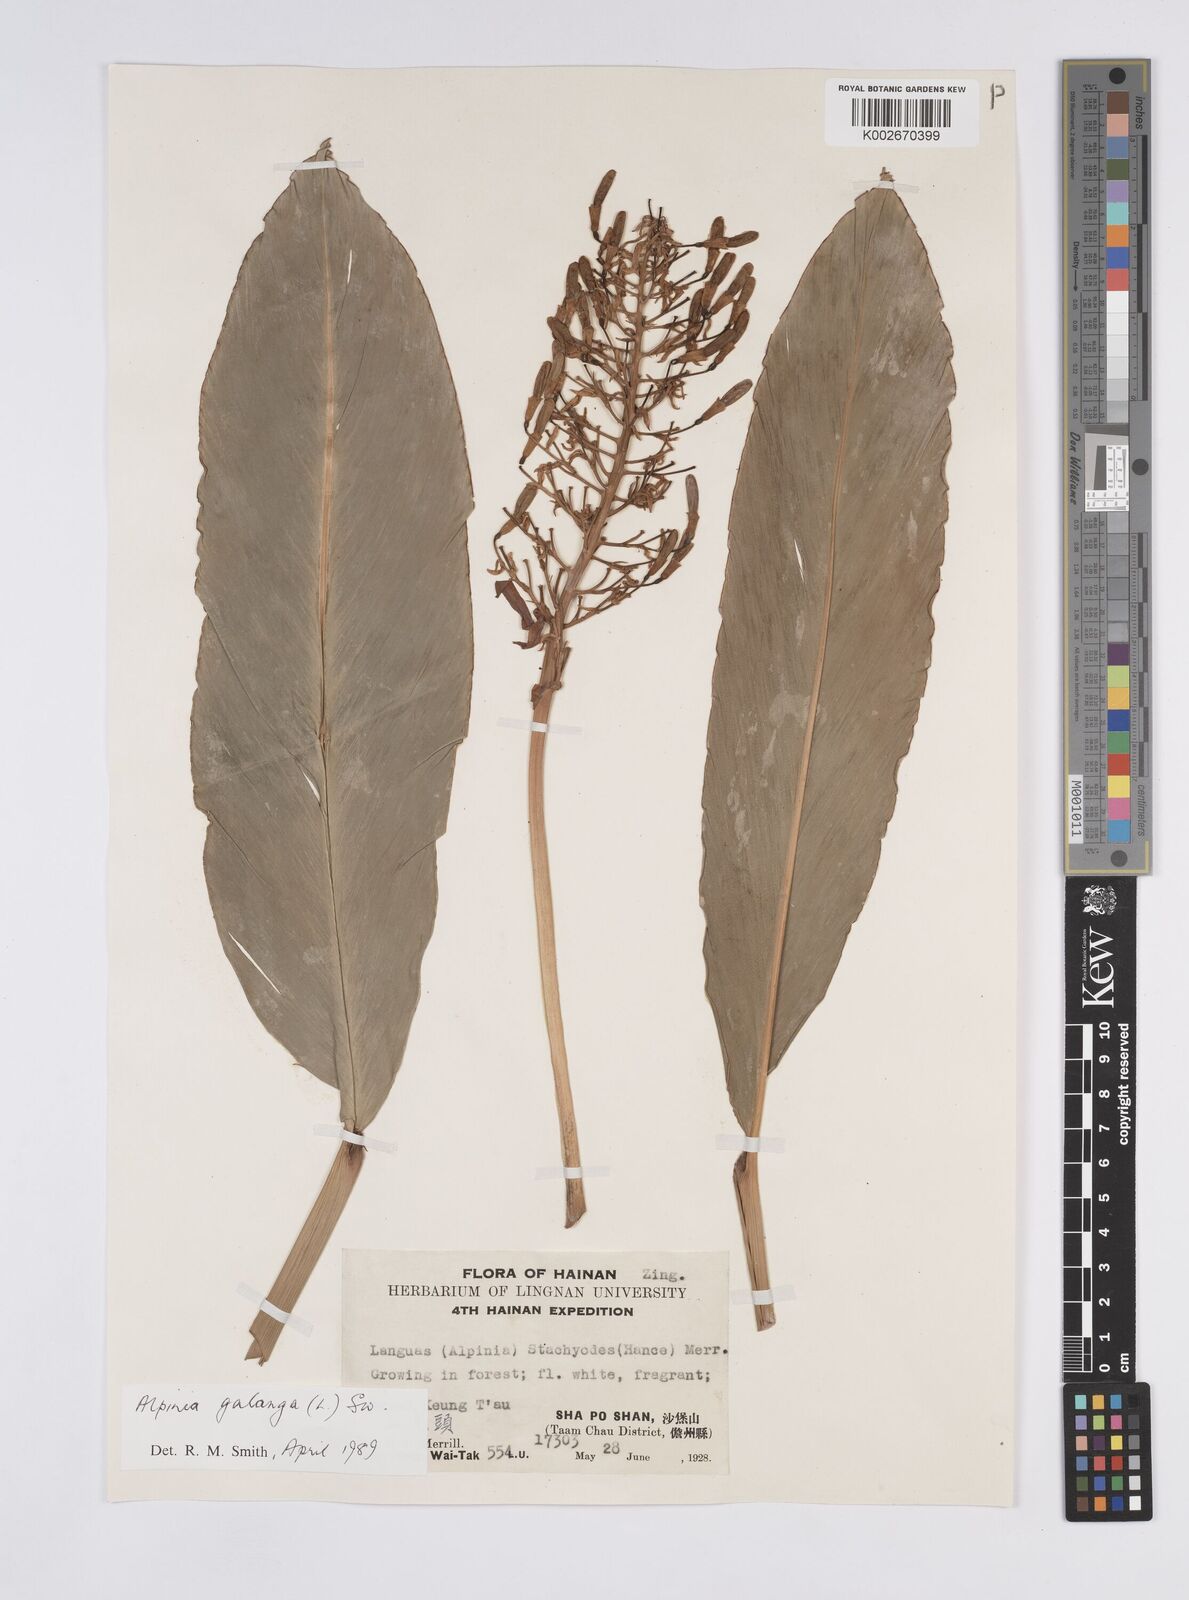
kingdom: Plantae
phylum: Tracheophyta
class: Liliopsida
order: Zingiberales
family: Zingiberaceae
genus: Alpinia
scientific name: Alpinia galanga
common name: Siamese-ginger
